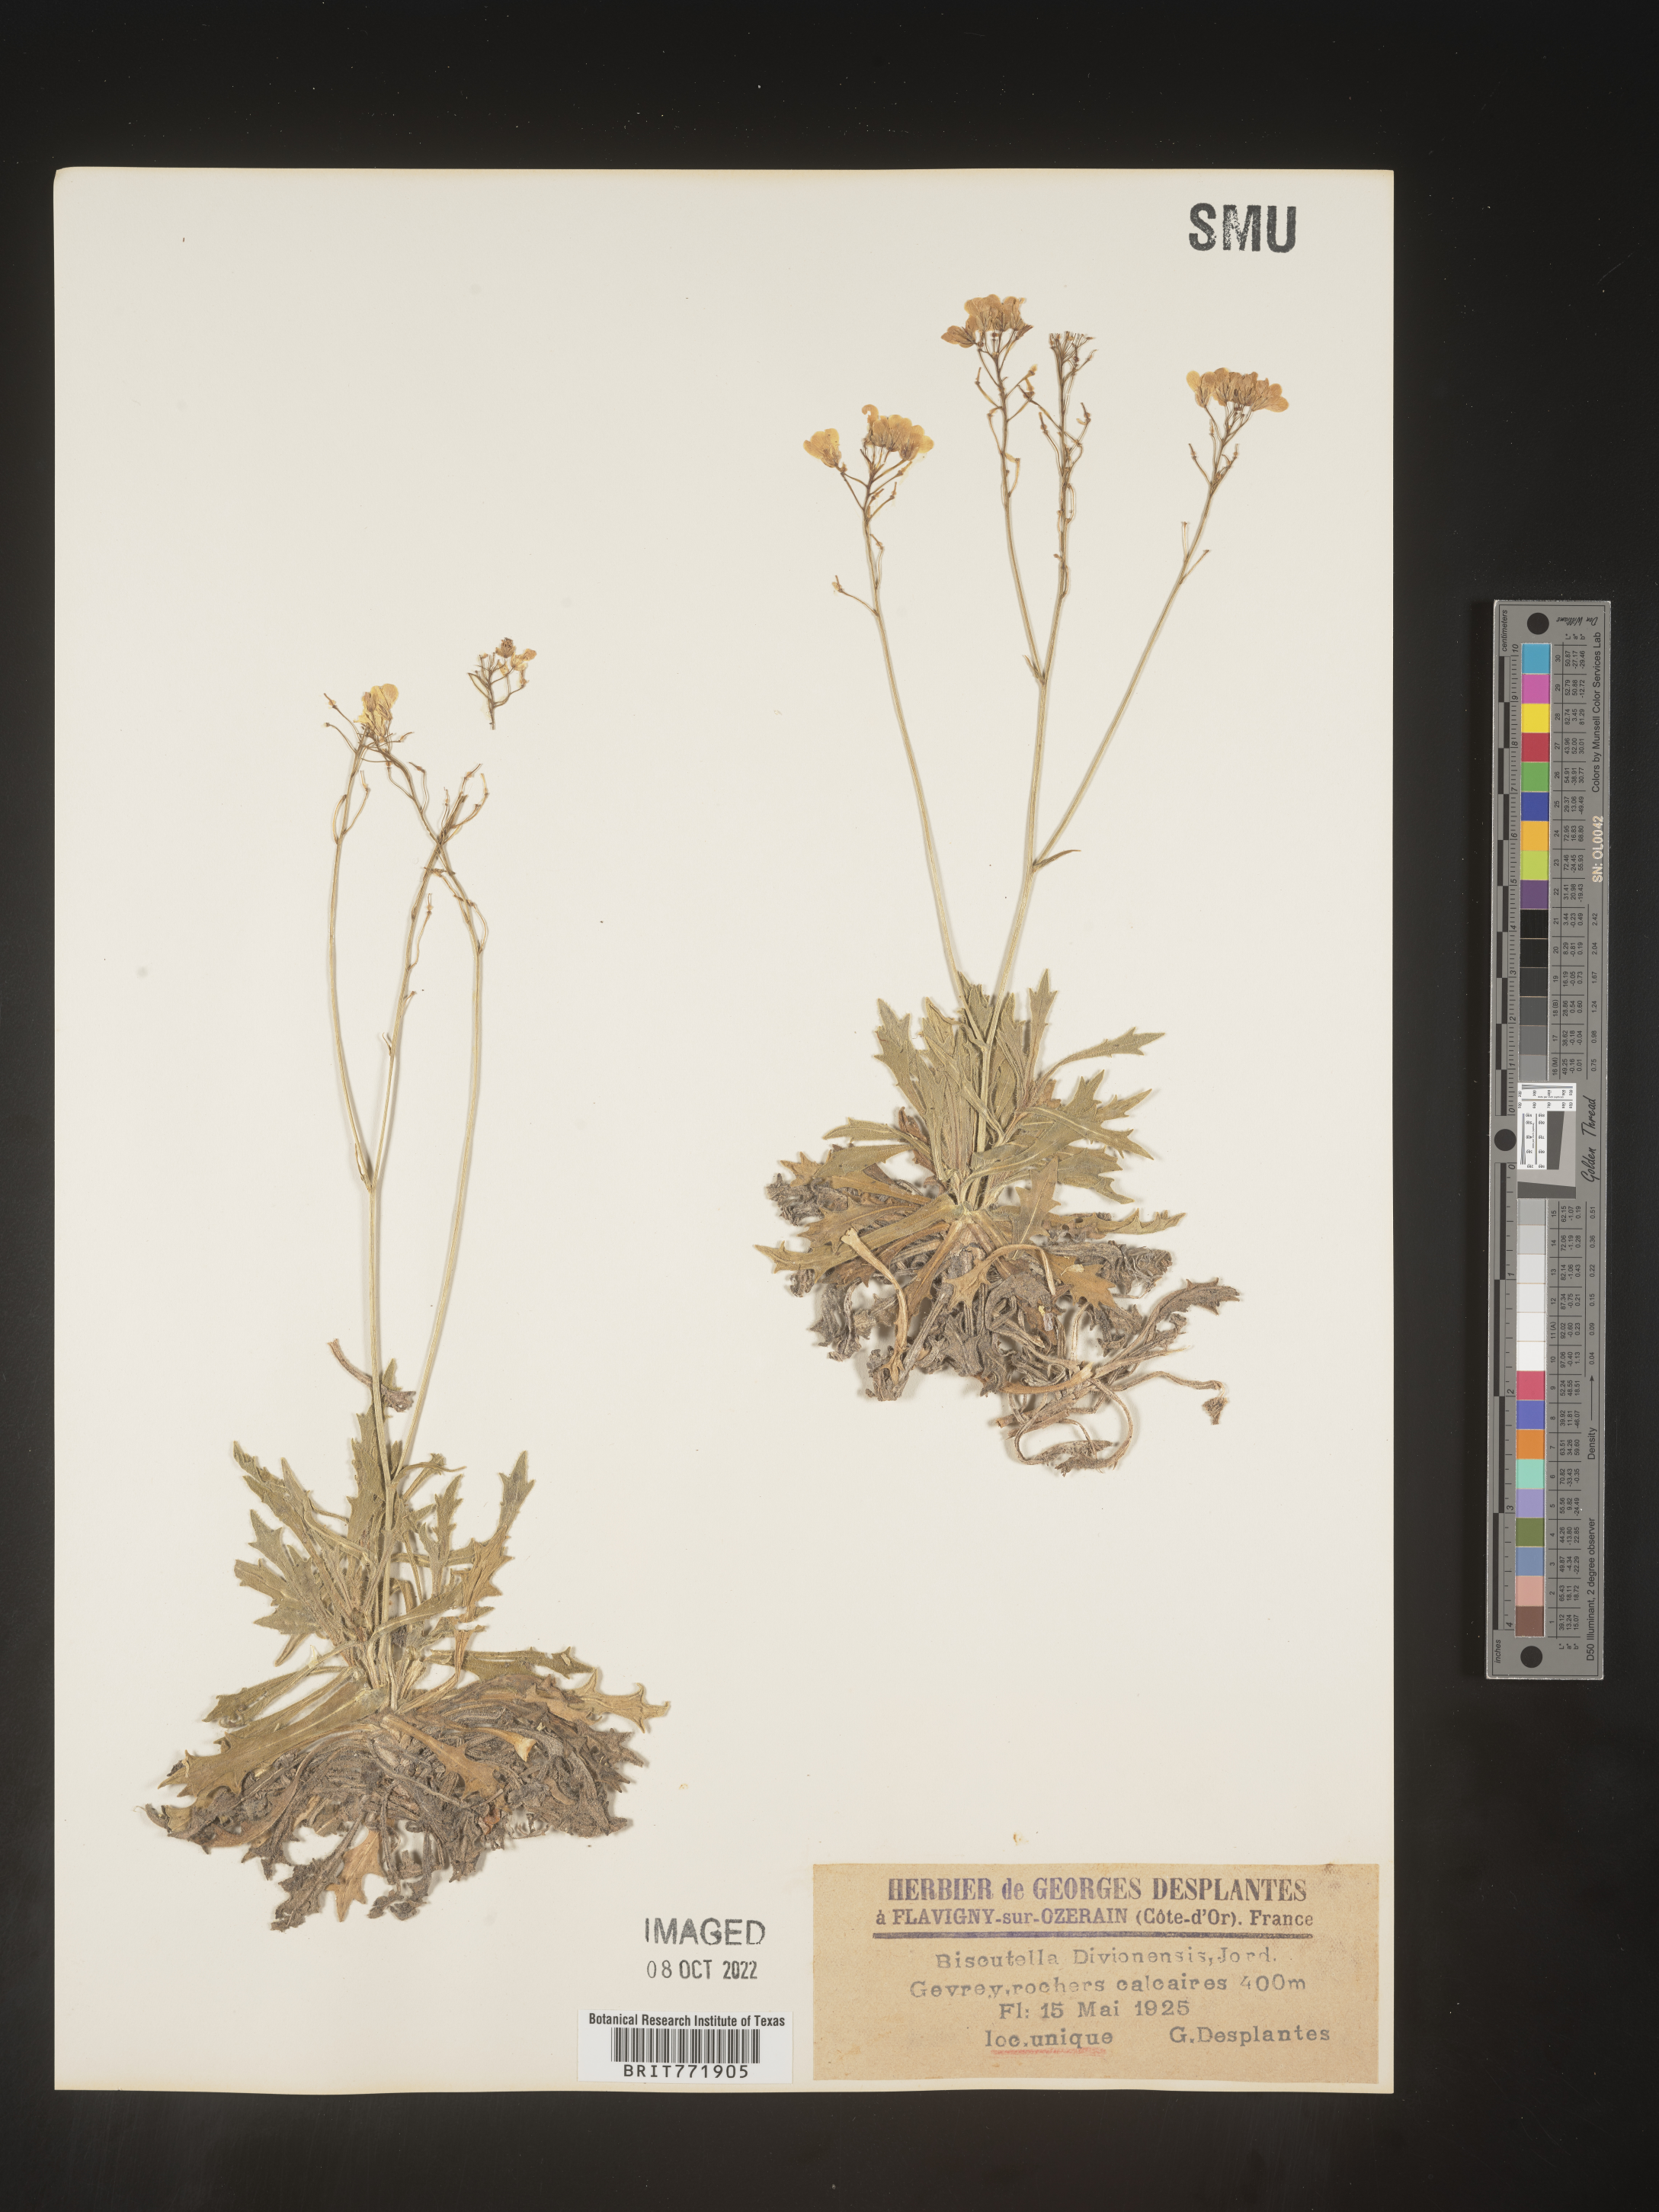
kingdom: Plantae
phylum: Tracheophyta
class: Magnoliopsida
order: Brassicales
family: Brassicaceae
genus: Biscutella
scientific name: Biscutella
